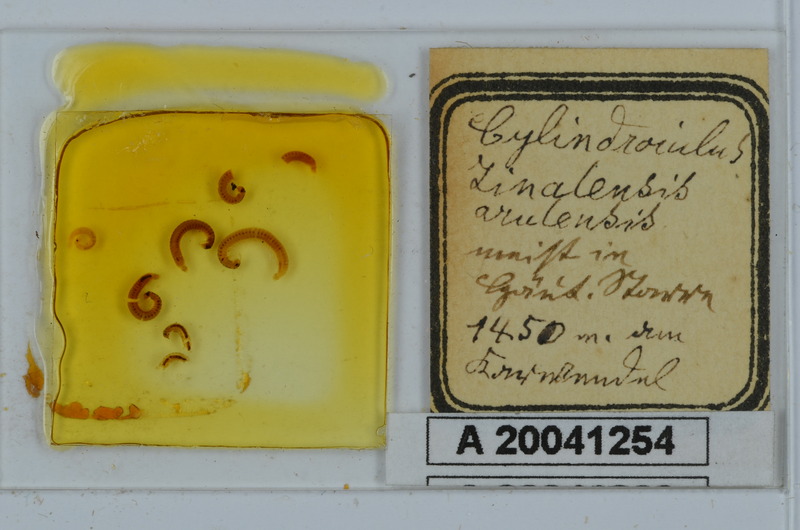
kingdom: Animalia
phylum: Arthropoda
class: Diplopoda
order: Julida
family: Julidae
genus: Cylindroiulus
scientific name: Cylindroiulus zinalensis
